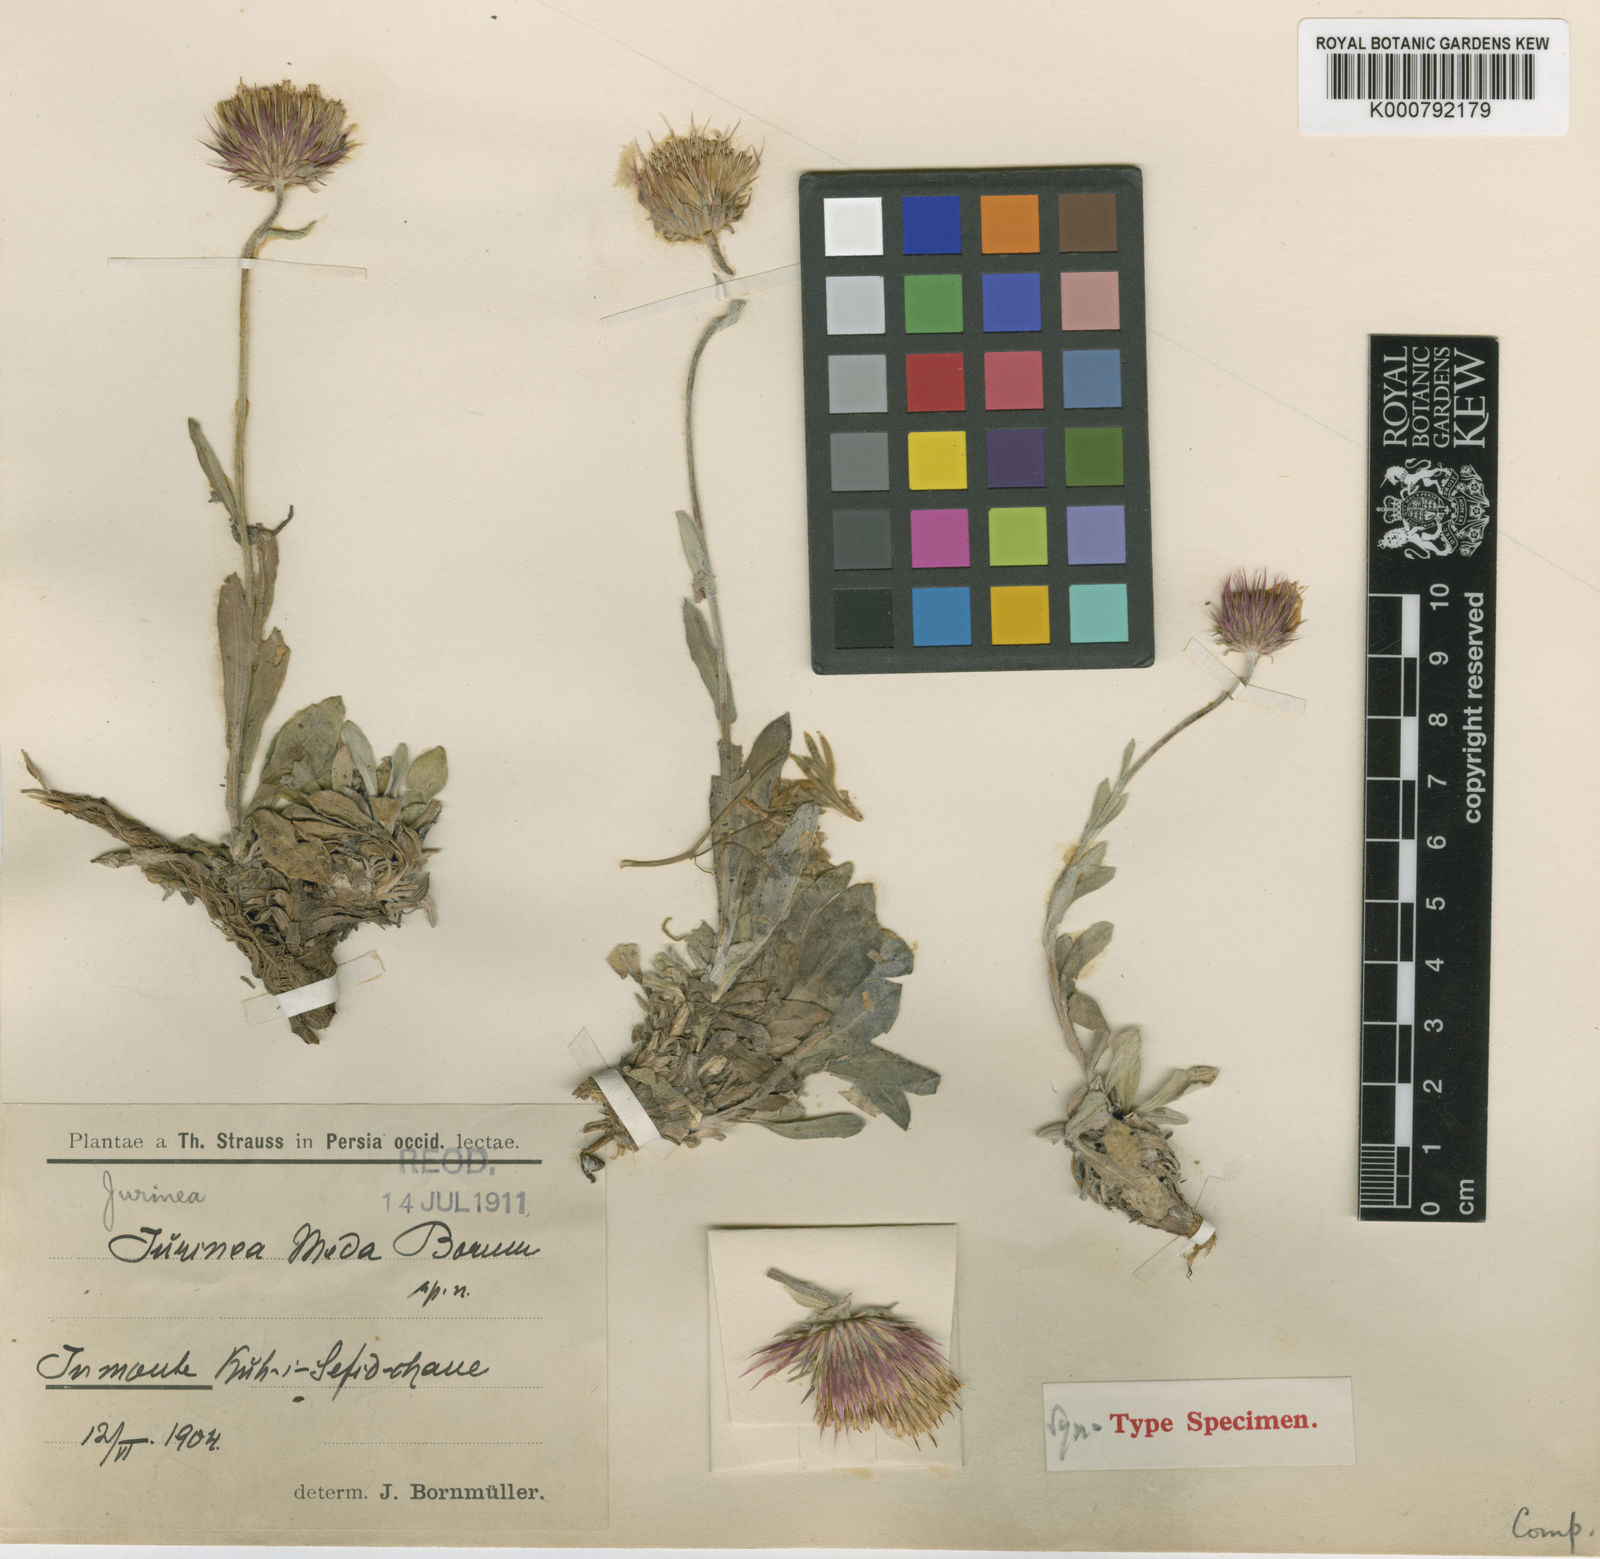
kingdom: Plantae
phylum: Tracheophyta
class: Magnoliopsida
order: Asterales
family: Asteraceae
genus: Jurinea
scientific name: Jurinea meda
